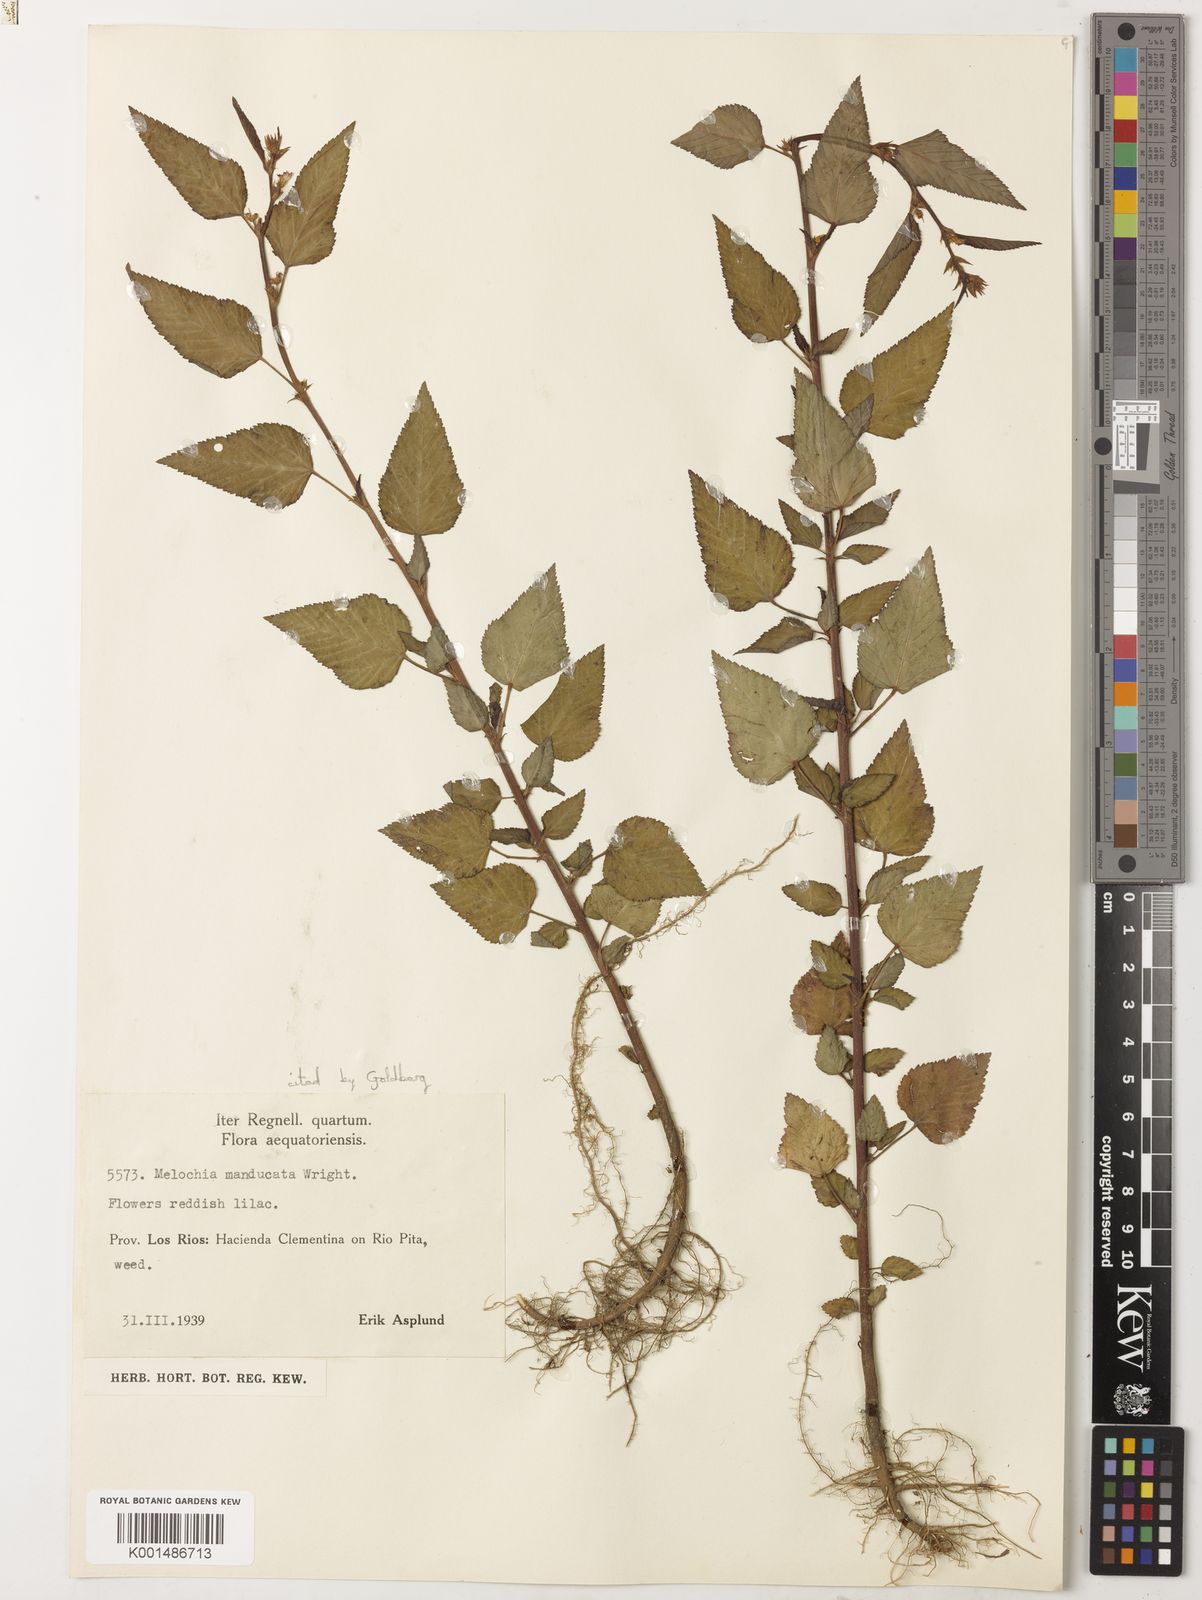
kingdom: Plantae
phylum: Tracheophyta
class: Magnoliopsida
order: Malvales
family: Malvaceae
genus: Melochia
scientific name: Melochia manducata
